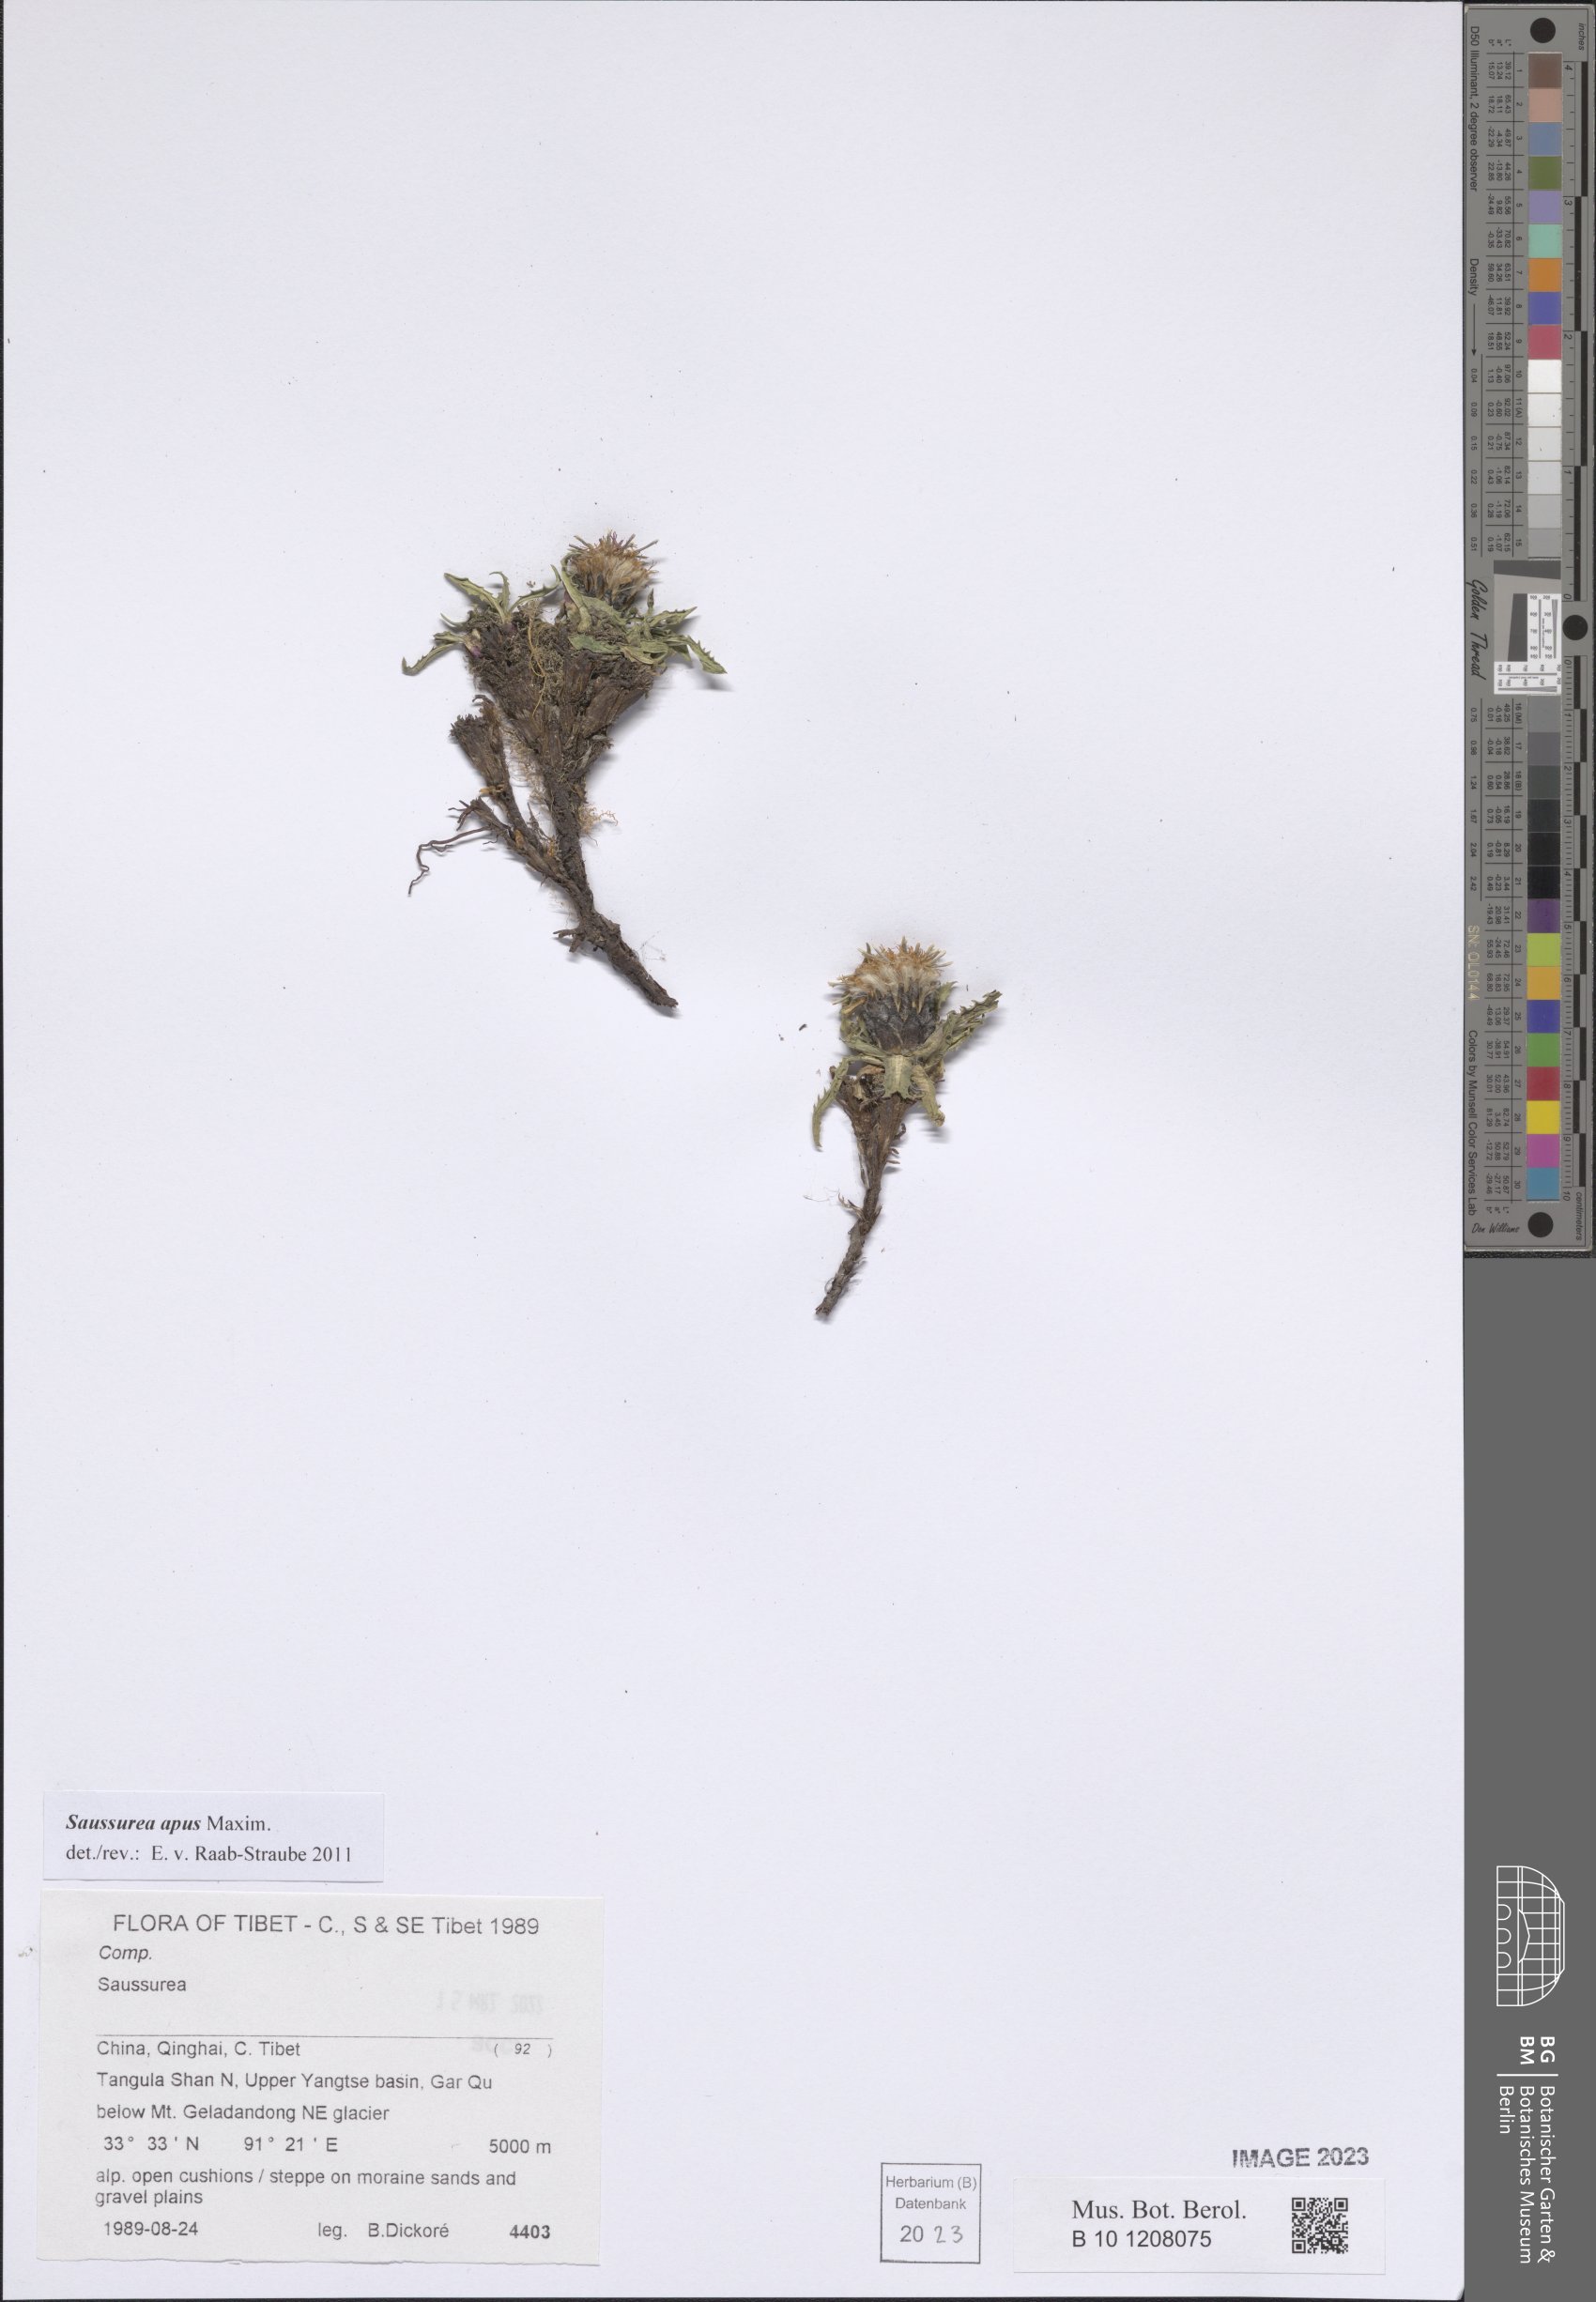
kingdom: Plantae
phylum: Tracheophyta
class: Magnoliopsida
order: Asterales
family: Asteraceae
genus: Saussurea
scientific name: Saussurea apus
